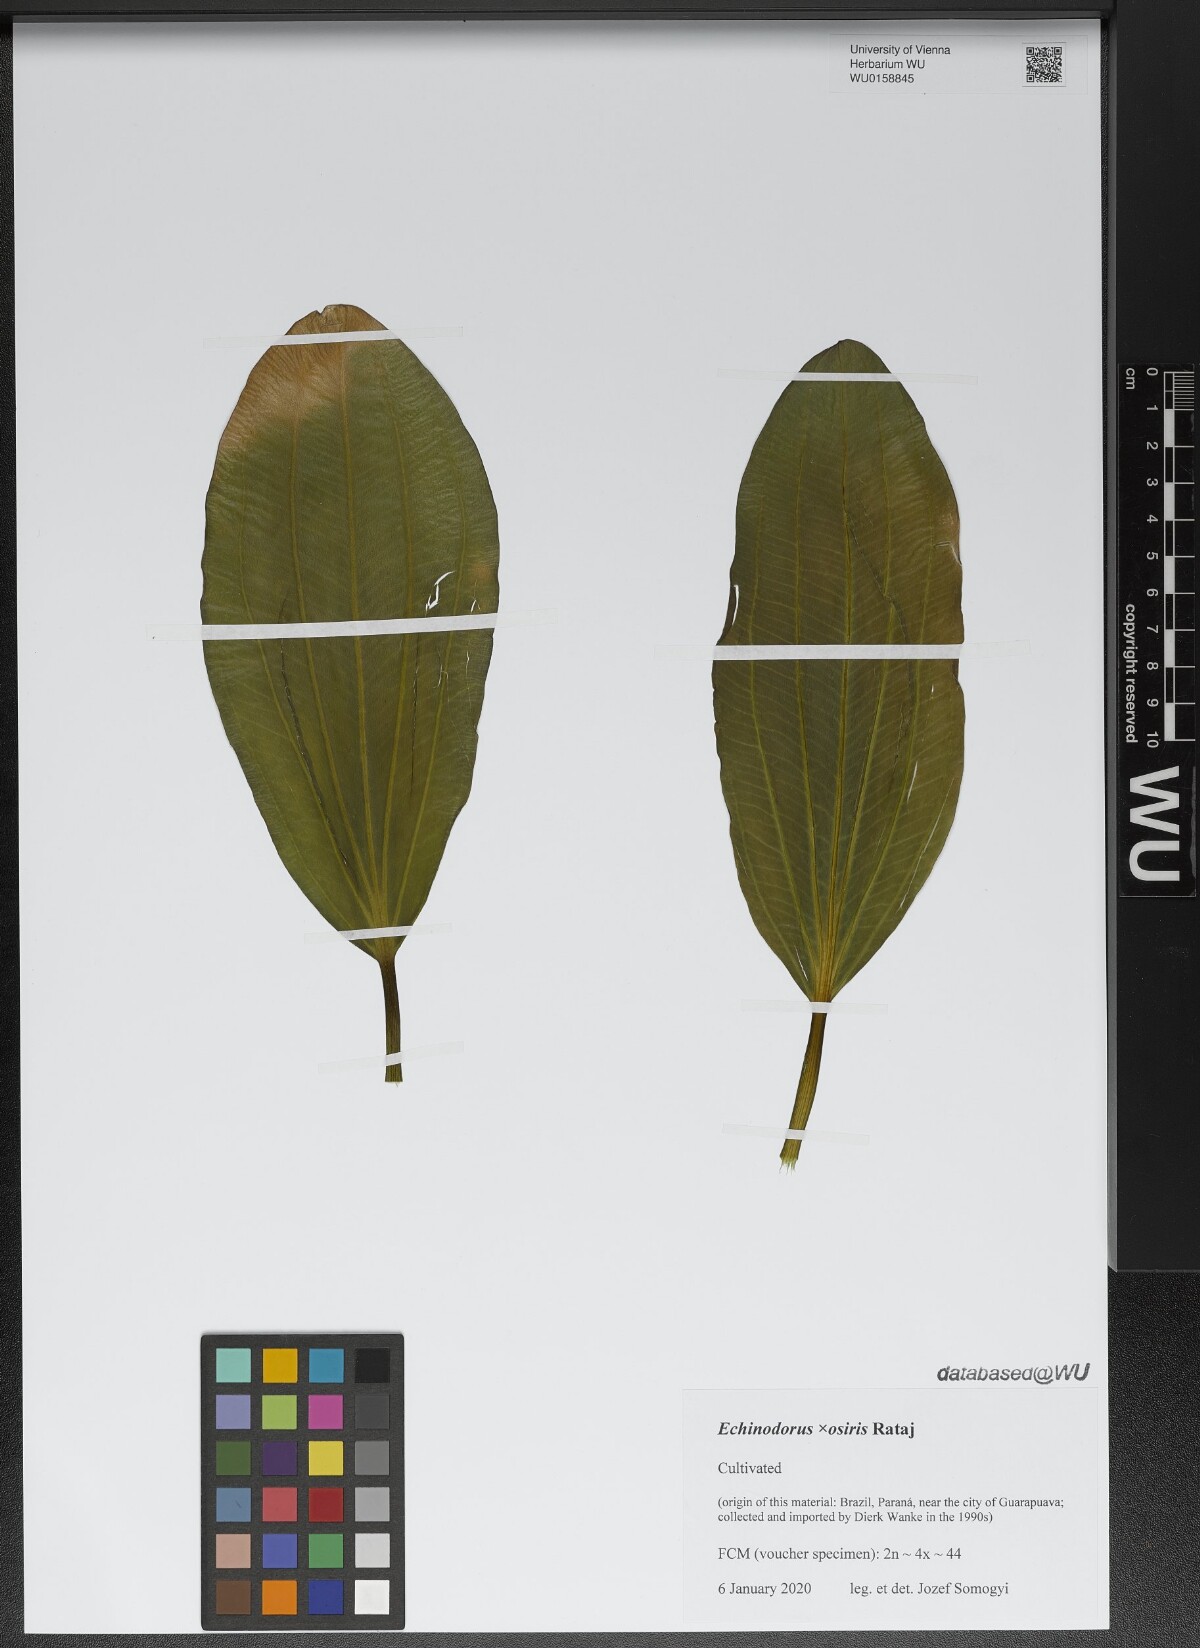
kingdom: Plantae
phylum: Tracheophyta
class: Liliopsida
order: Alismatales
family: Alismataceae
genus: Aquarius
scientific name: Aquarius uruguayensis
